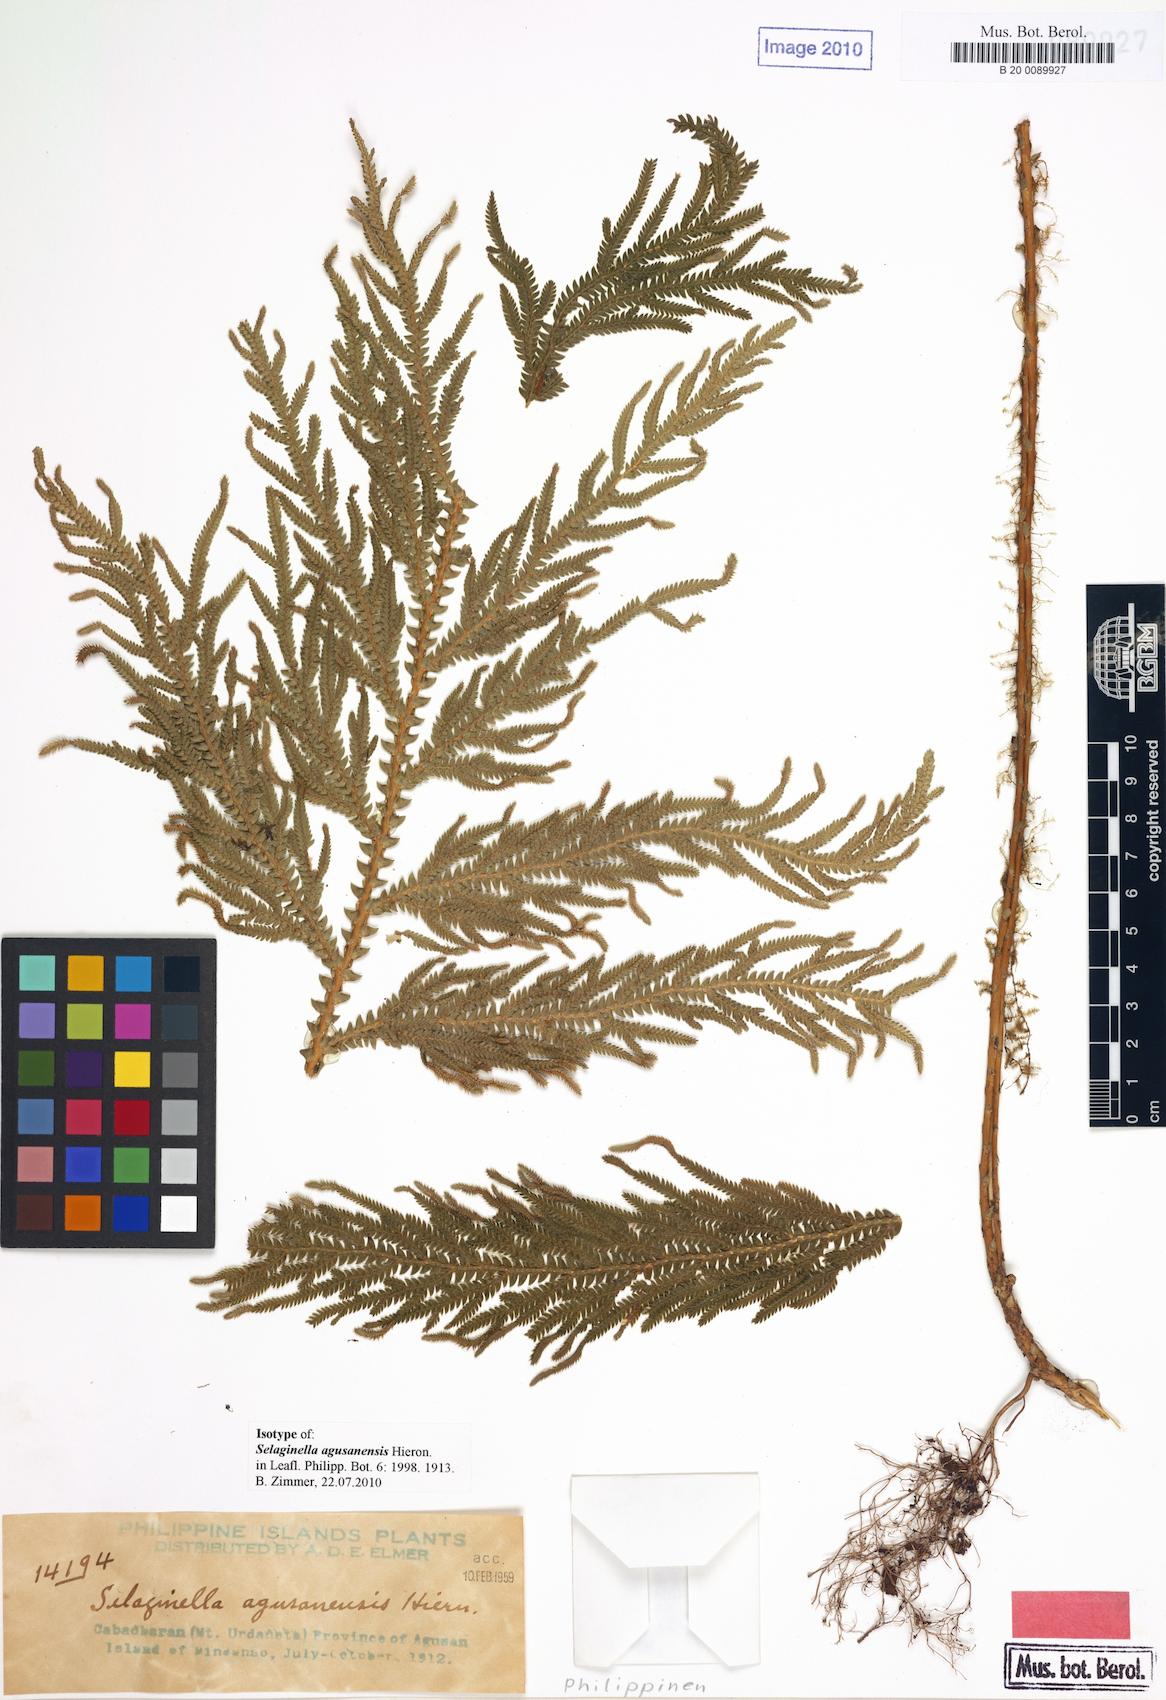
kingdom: Plantae
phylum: Tracheophyta
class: Lycopodiopsida
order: Selaginellales
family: Selaginellaceae
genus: Selaginella
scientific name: Selaginella copelandii
